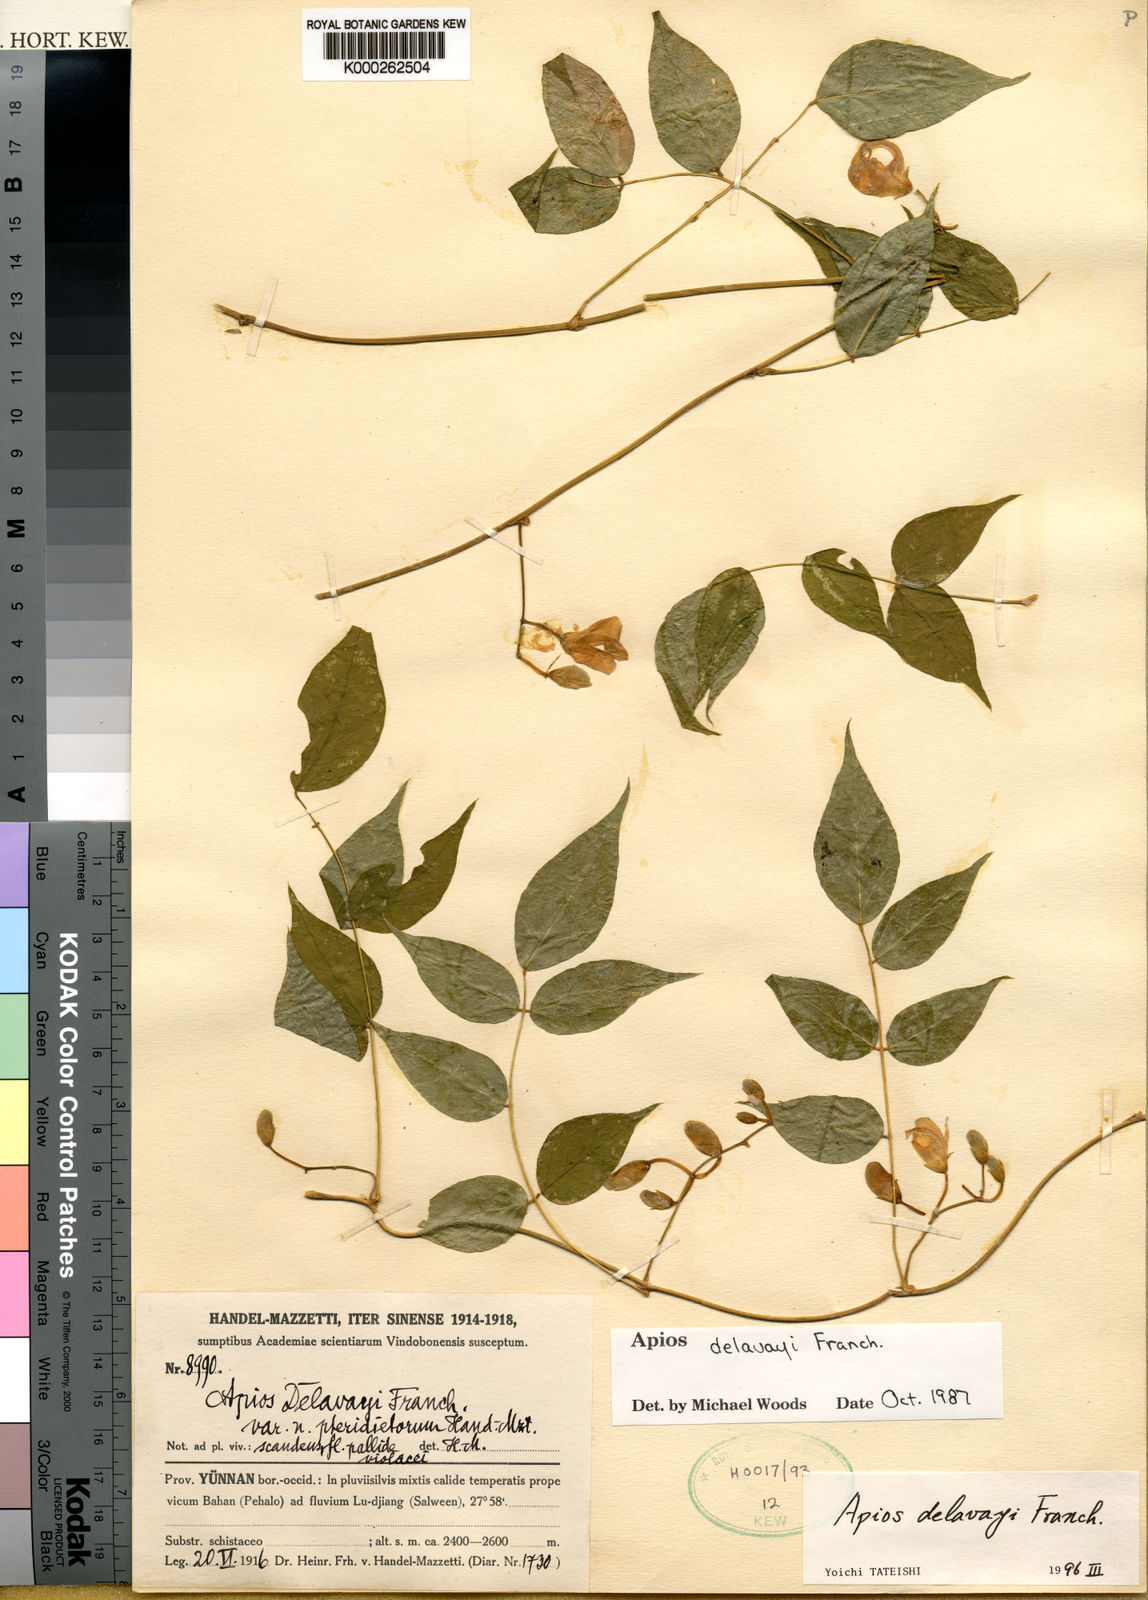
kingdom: Plantae
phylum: Tracheophyta
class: Magnoliopsida
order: Fabales
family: Fabaceae
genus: Apios
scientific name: Apios
